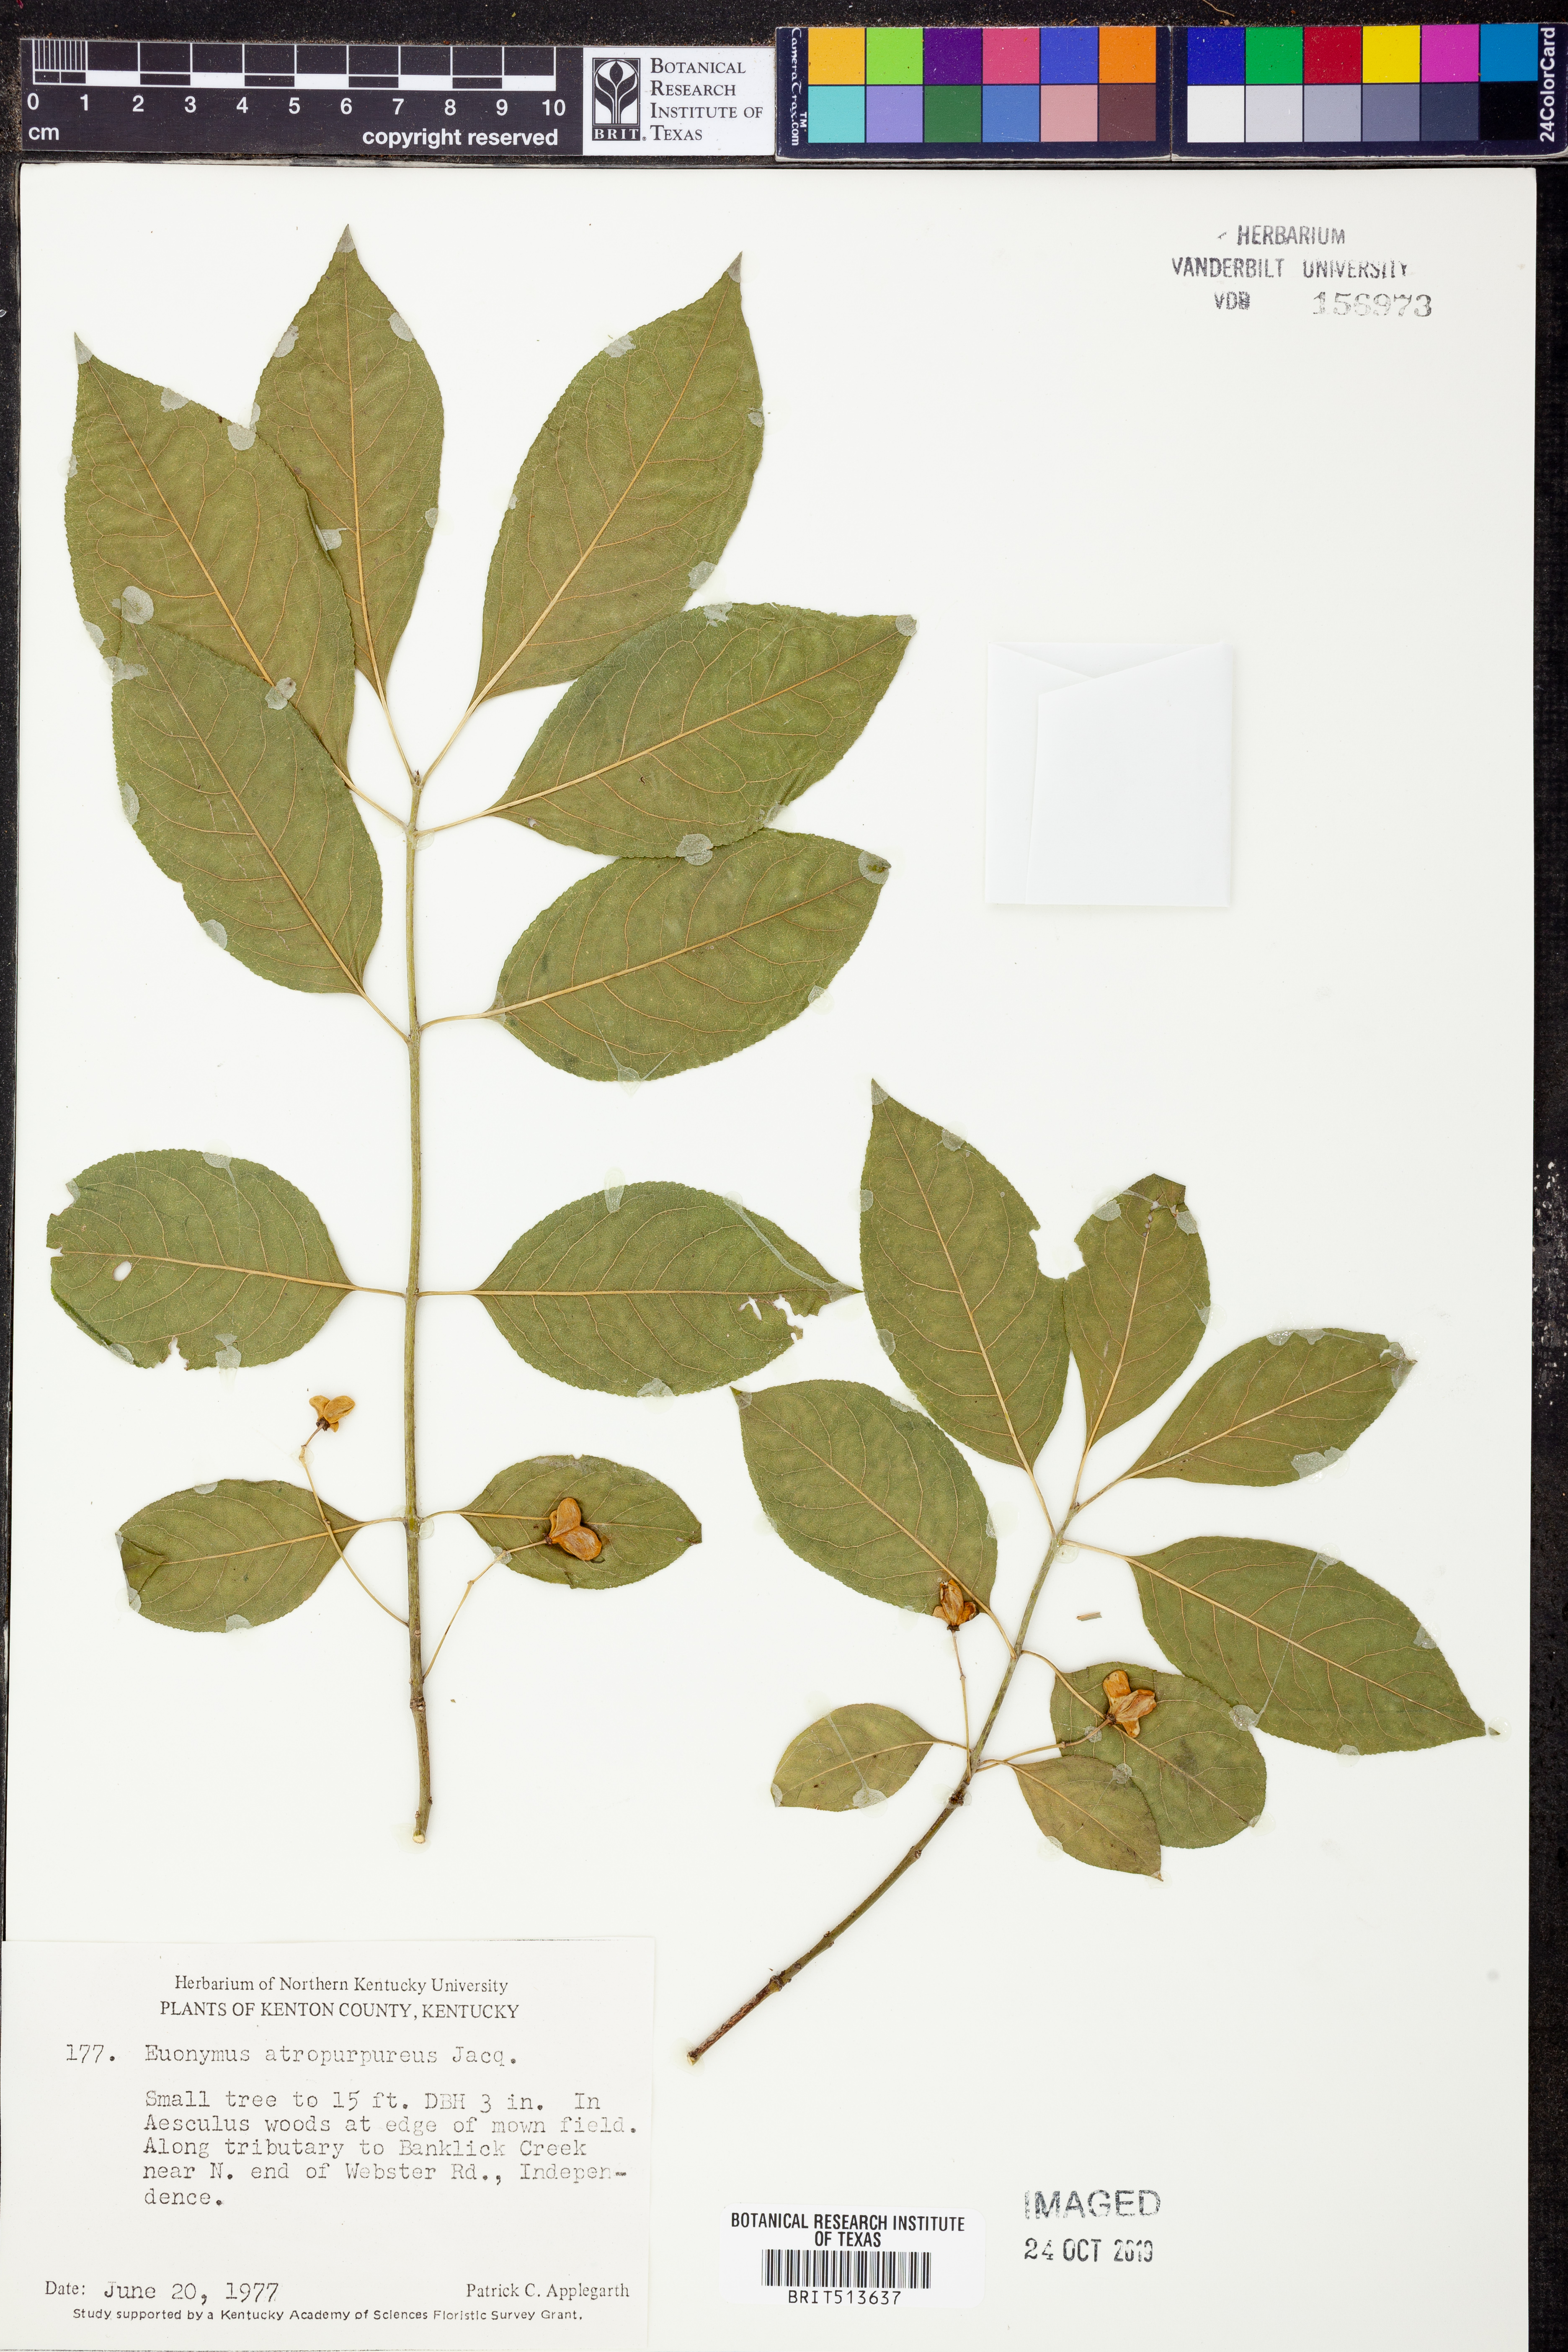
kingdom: Plantae
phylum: Tracheophyta
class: Magnoliopsida
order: Celastrales
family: Celastraceae
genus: Euonymus
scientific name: Euonymus atropurpureus
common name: Eastern wahoo
